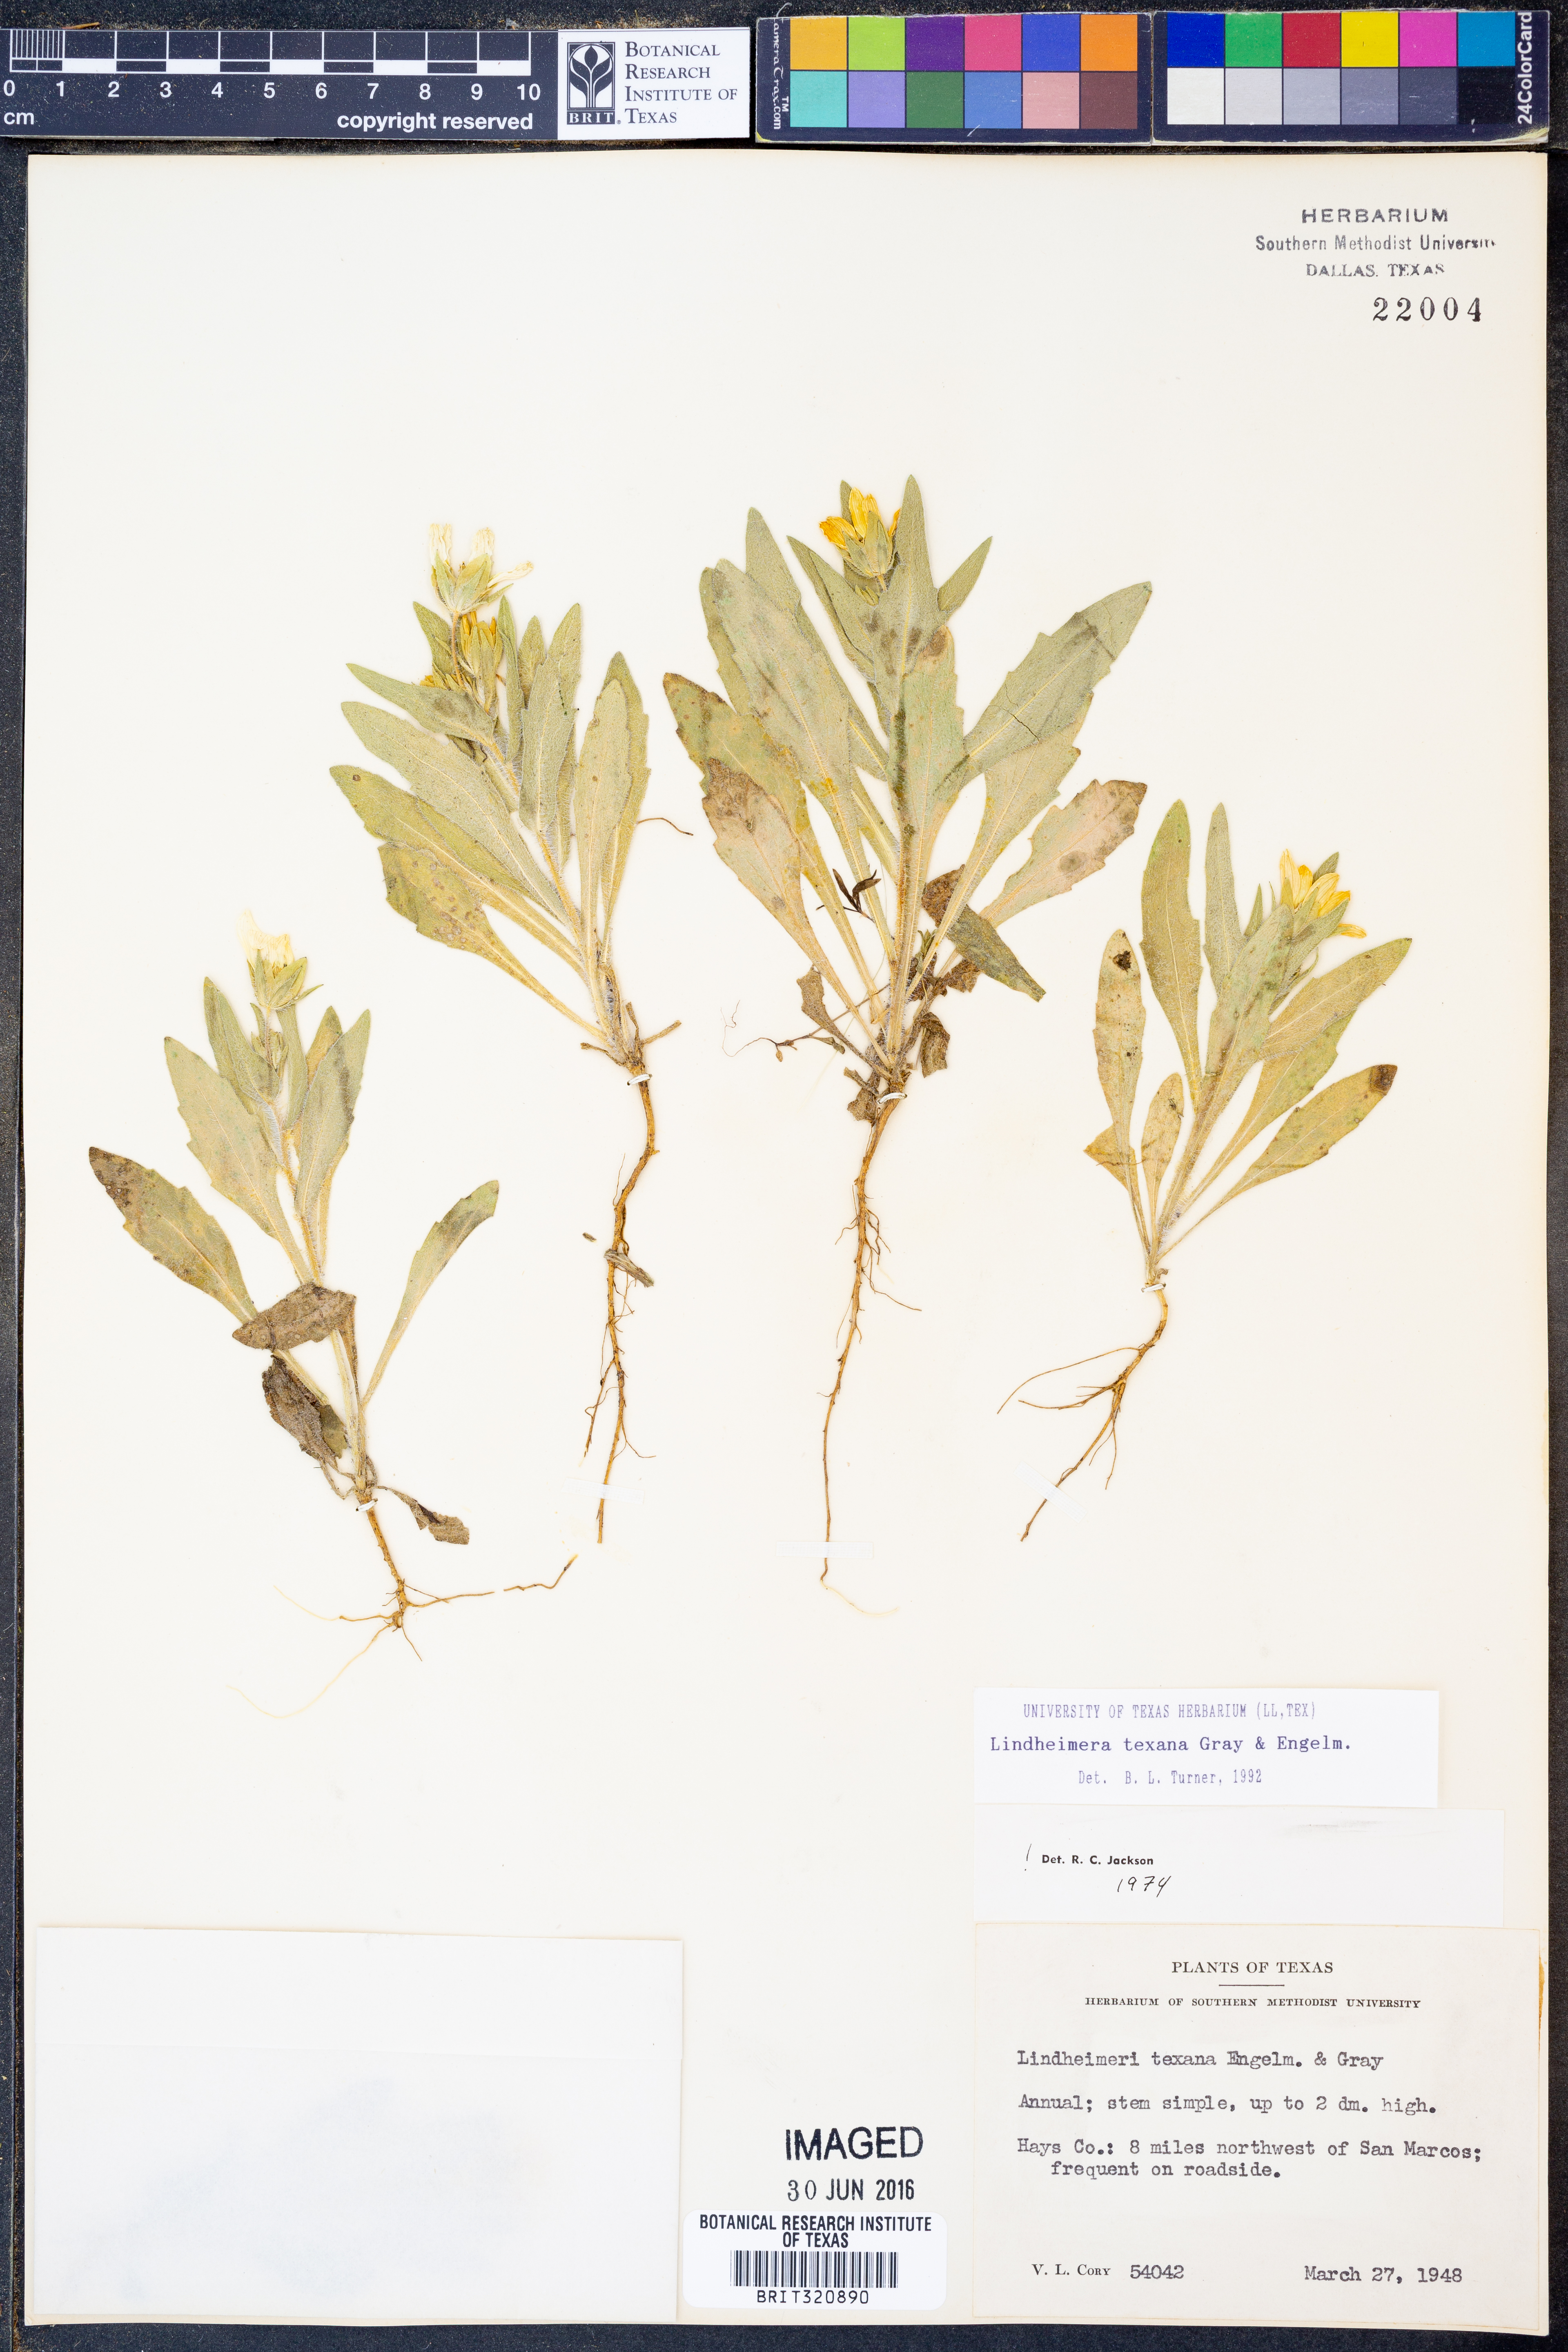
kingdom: Plantae
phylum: Tracheophyta
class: Magnoliopsida
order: Asterales
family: Asteraceae
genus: Lindheimera
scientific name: Lindheimera texana
